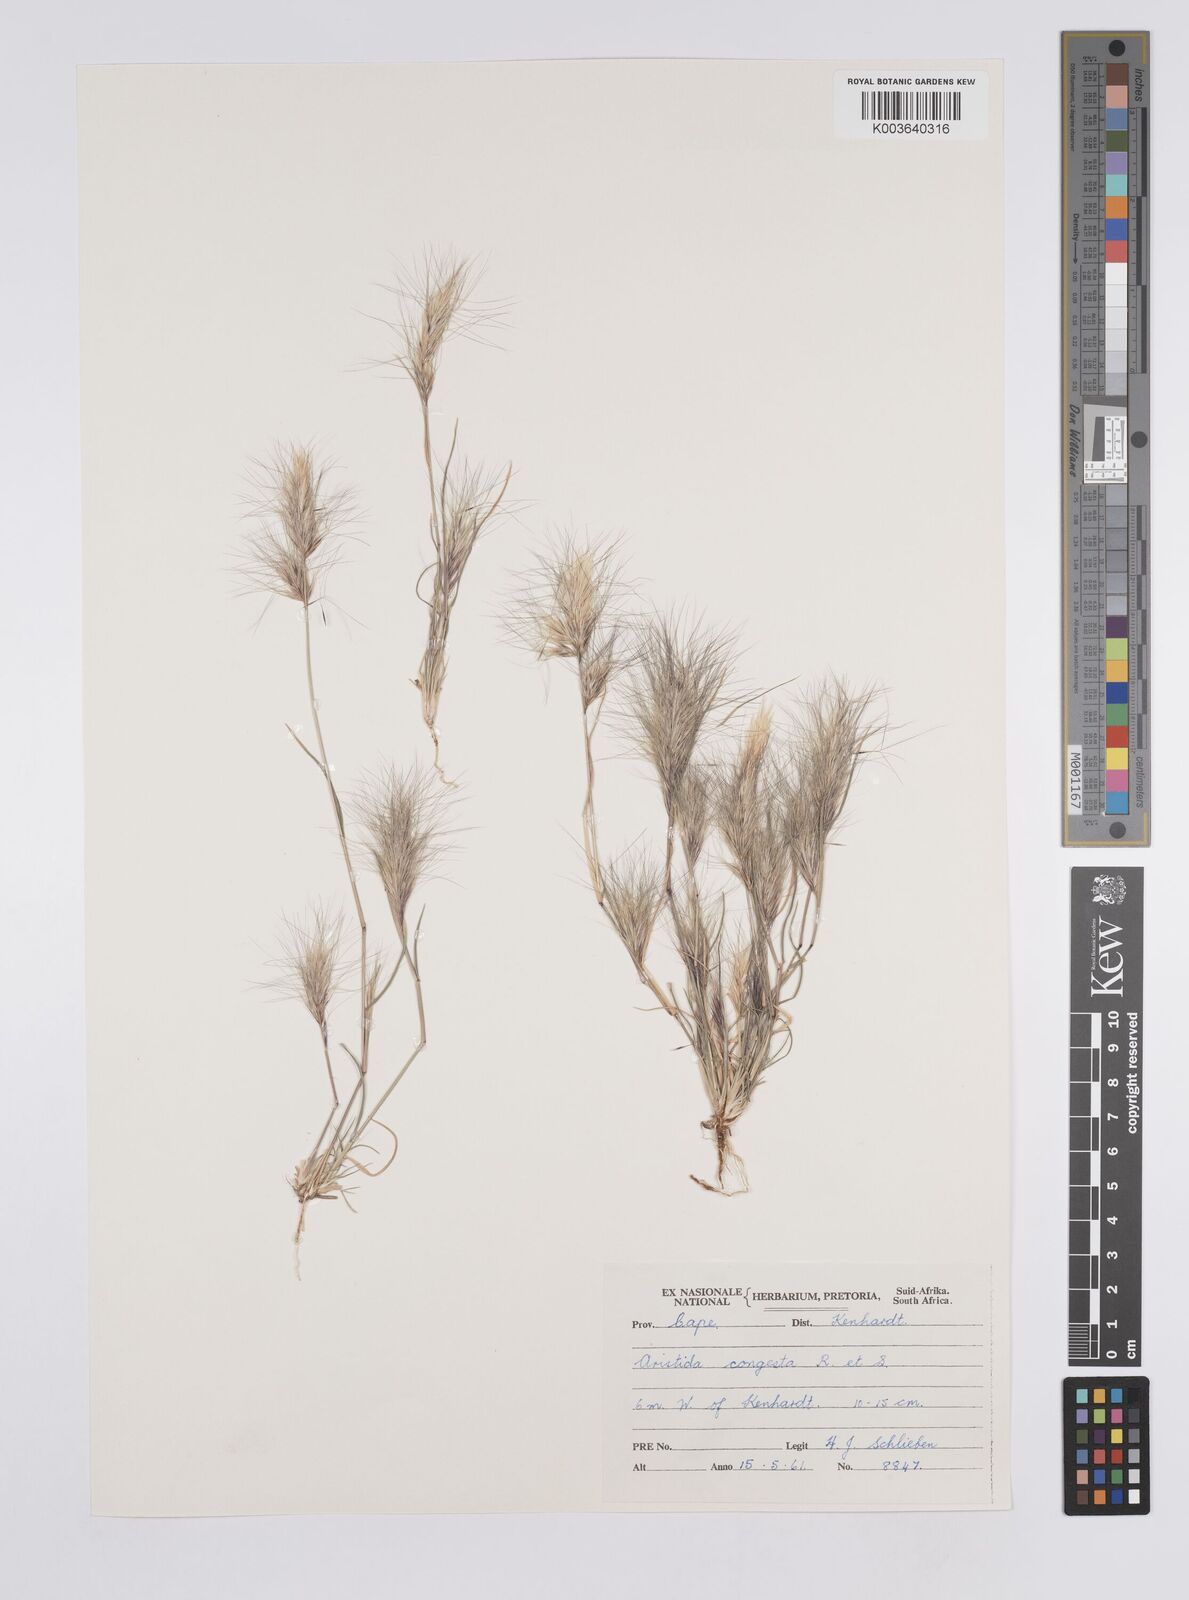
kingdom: Plantae
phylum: Tracheophyta
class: Liliopsida
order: Poales
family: Poaceae
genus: Aristida
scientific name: Aristida congesta
